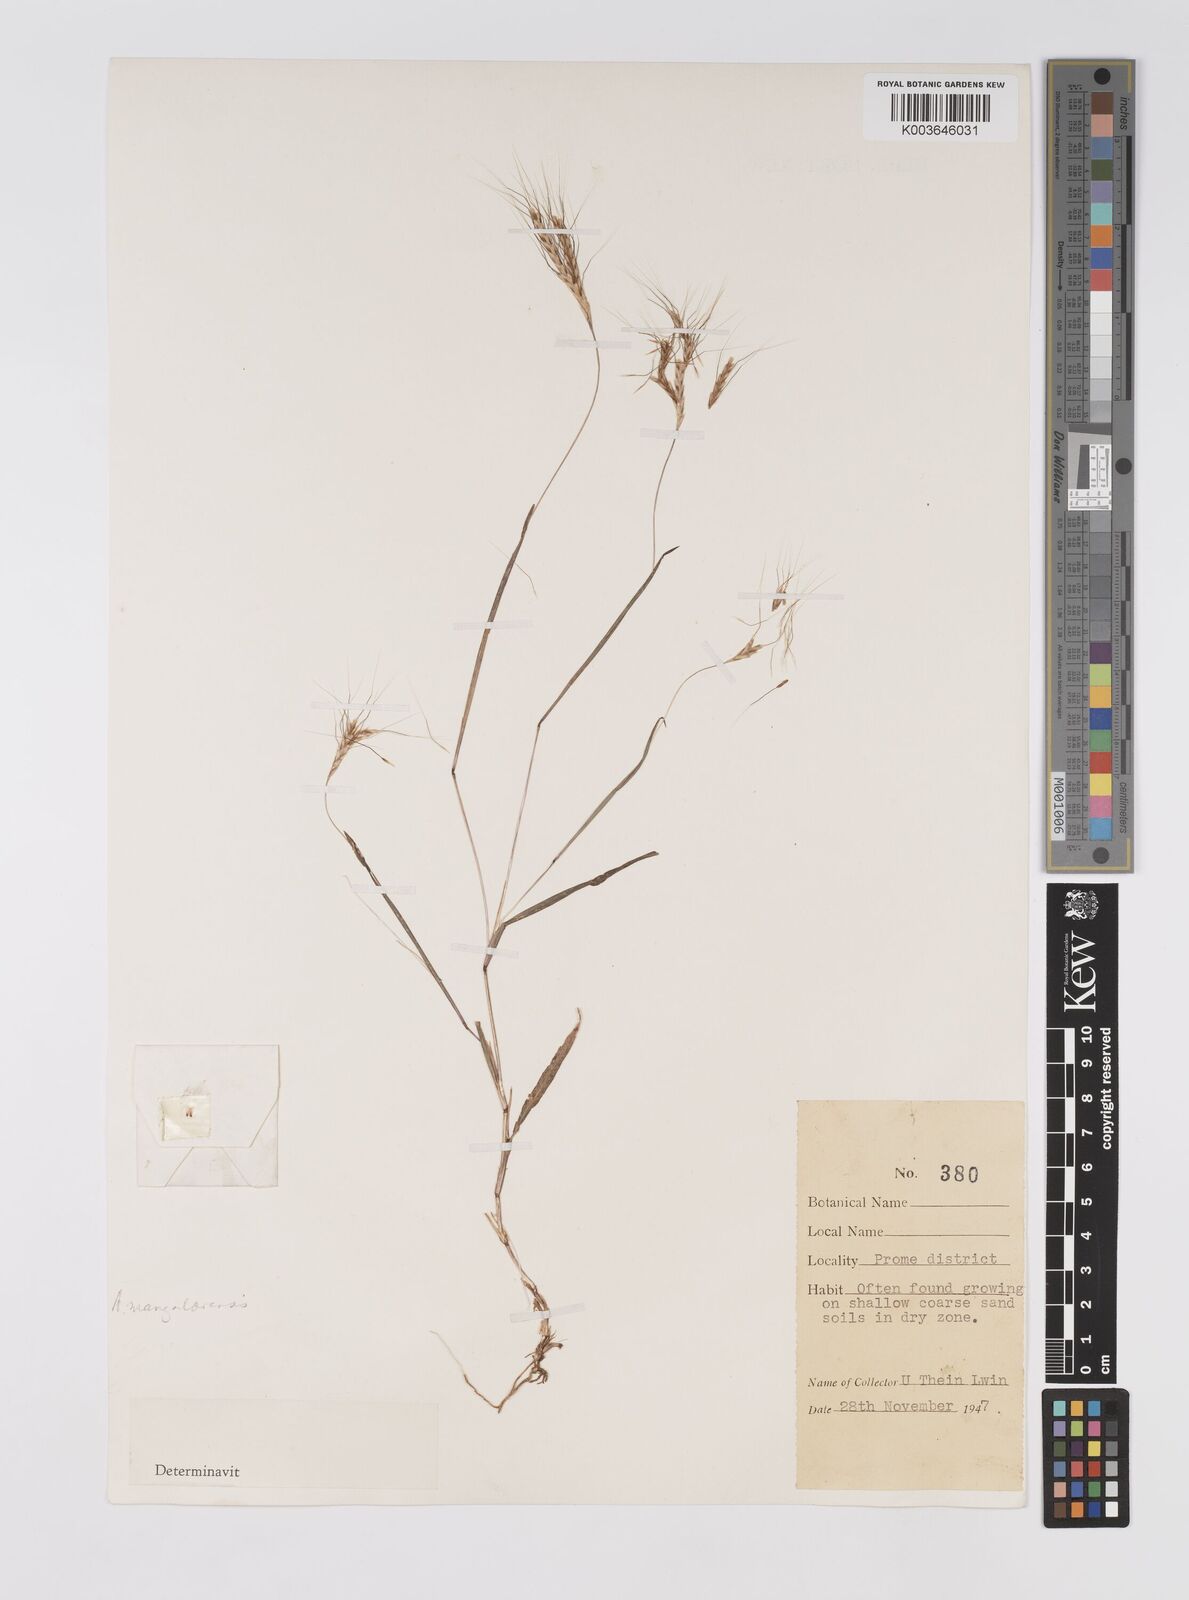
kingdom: Plantae
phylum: Tracheophyta
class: Liliopsida
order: Poales
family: Poaceae
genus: Apocopis
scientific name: Apocopis mangalorensis
